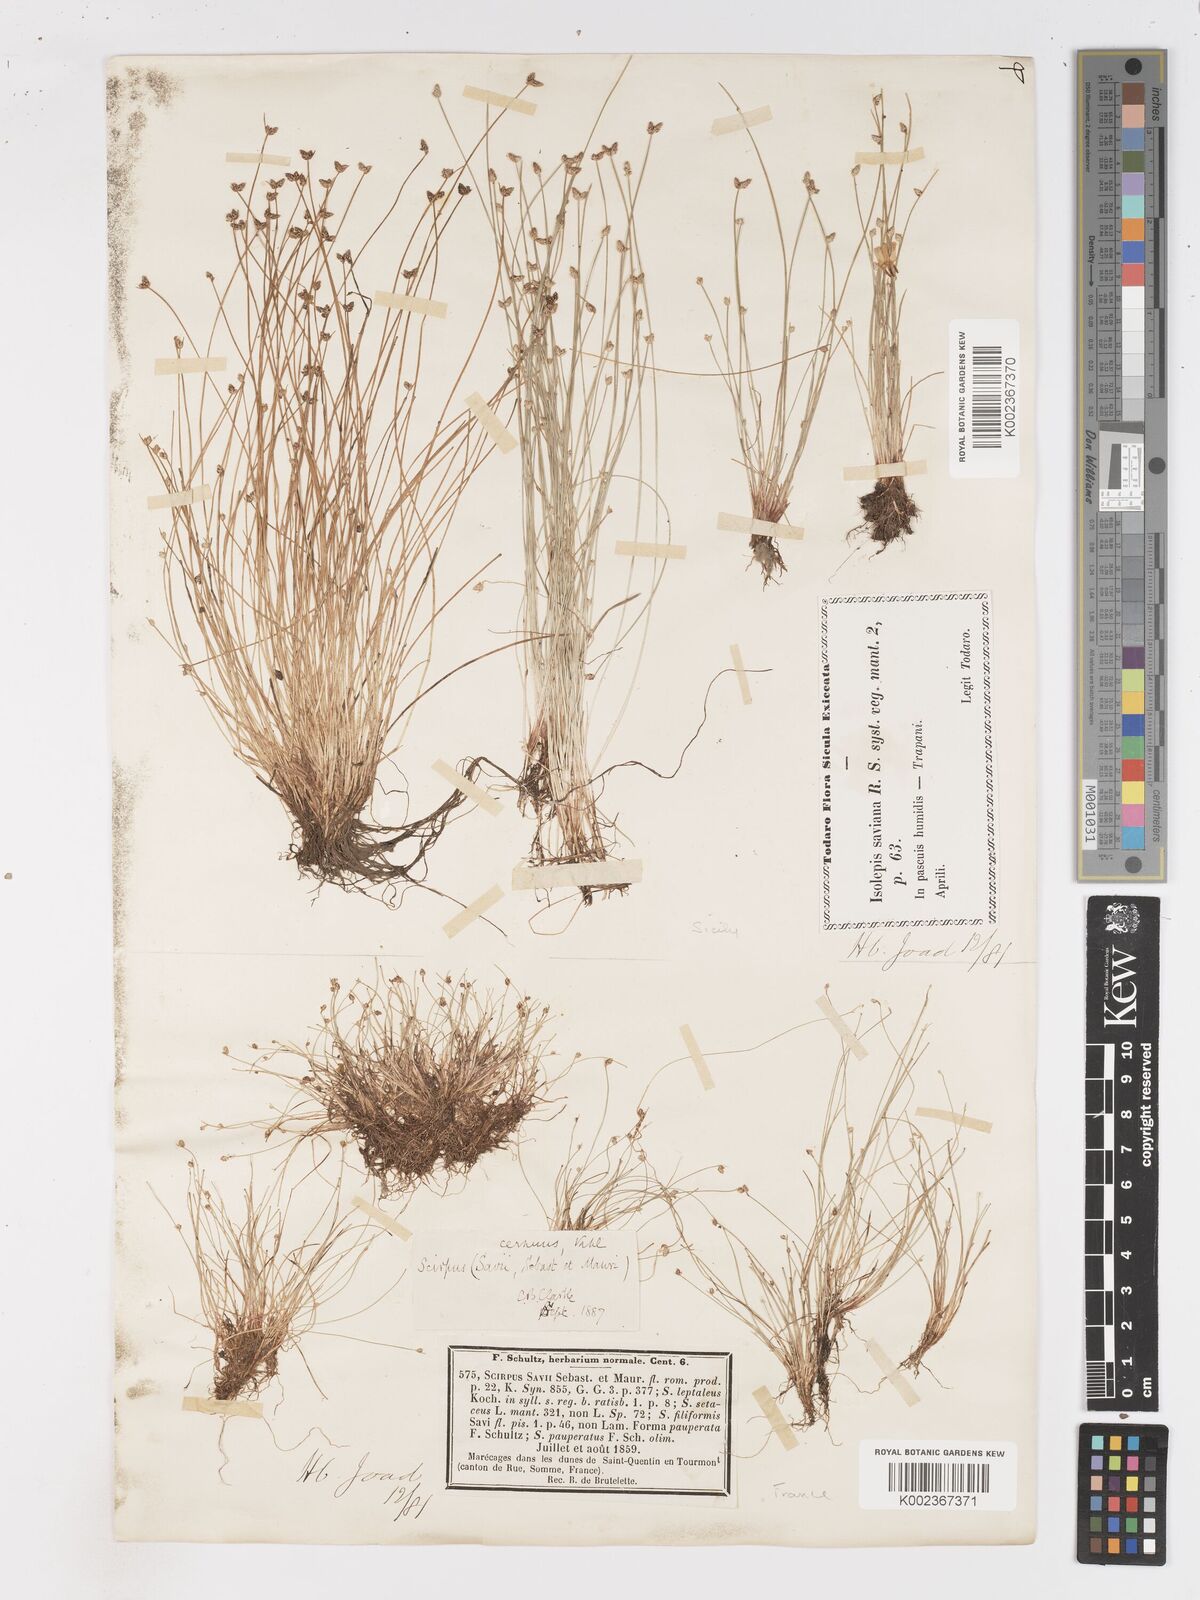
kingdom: Plantae
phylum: Tracheophyta
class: Liliopsida
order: Poales
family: Cyperaceae
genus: Isolepis
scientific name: Isolepis cernua
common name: Slender club-rush
